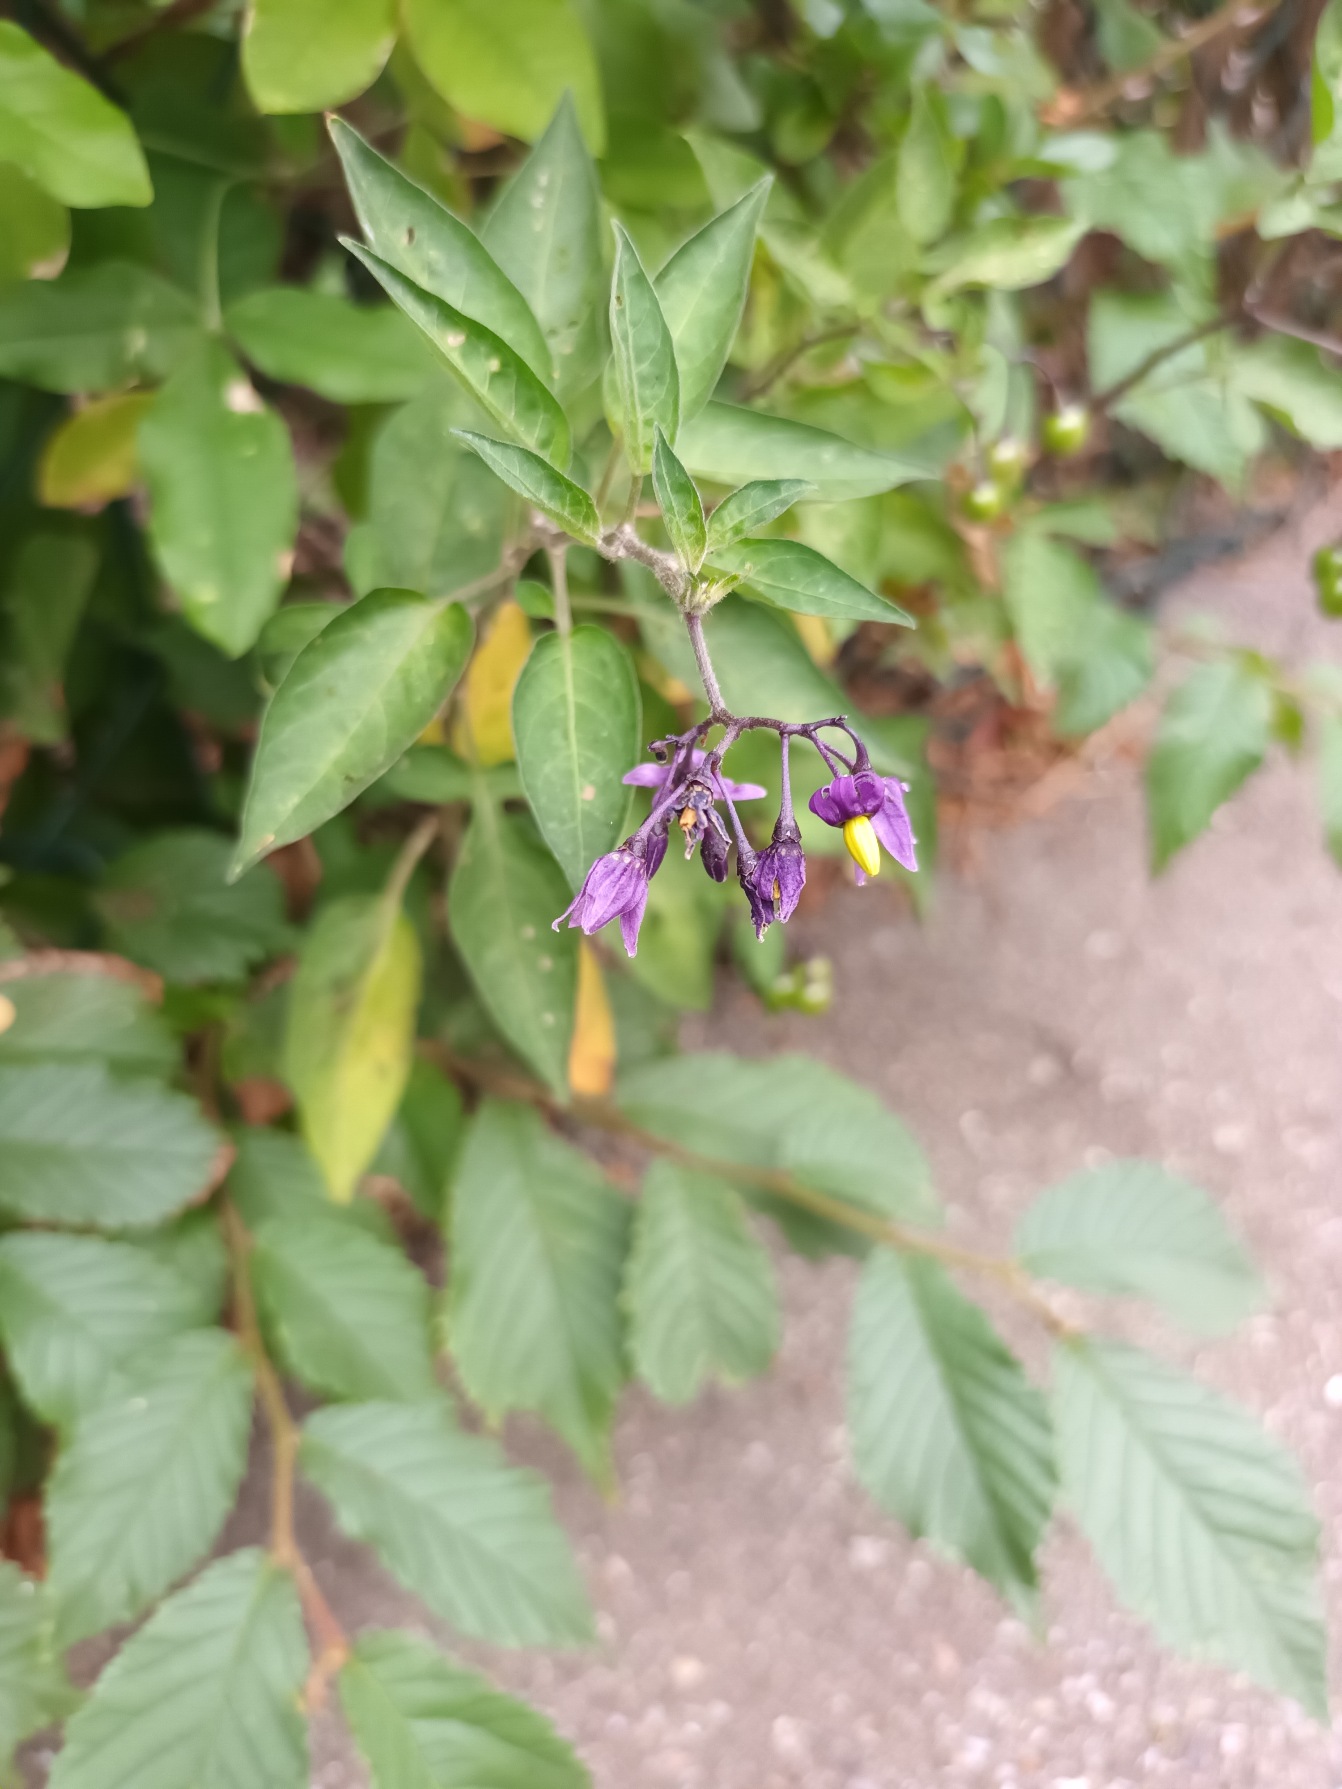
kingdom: Plantae
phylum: Tracheophyta
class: Magnoliopsida
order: Solanales
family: Solanaceae
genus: Solanum
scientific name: Solanum dulcamara
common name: Bittersød natskygge
